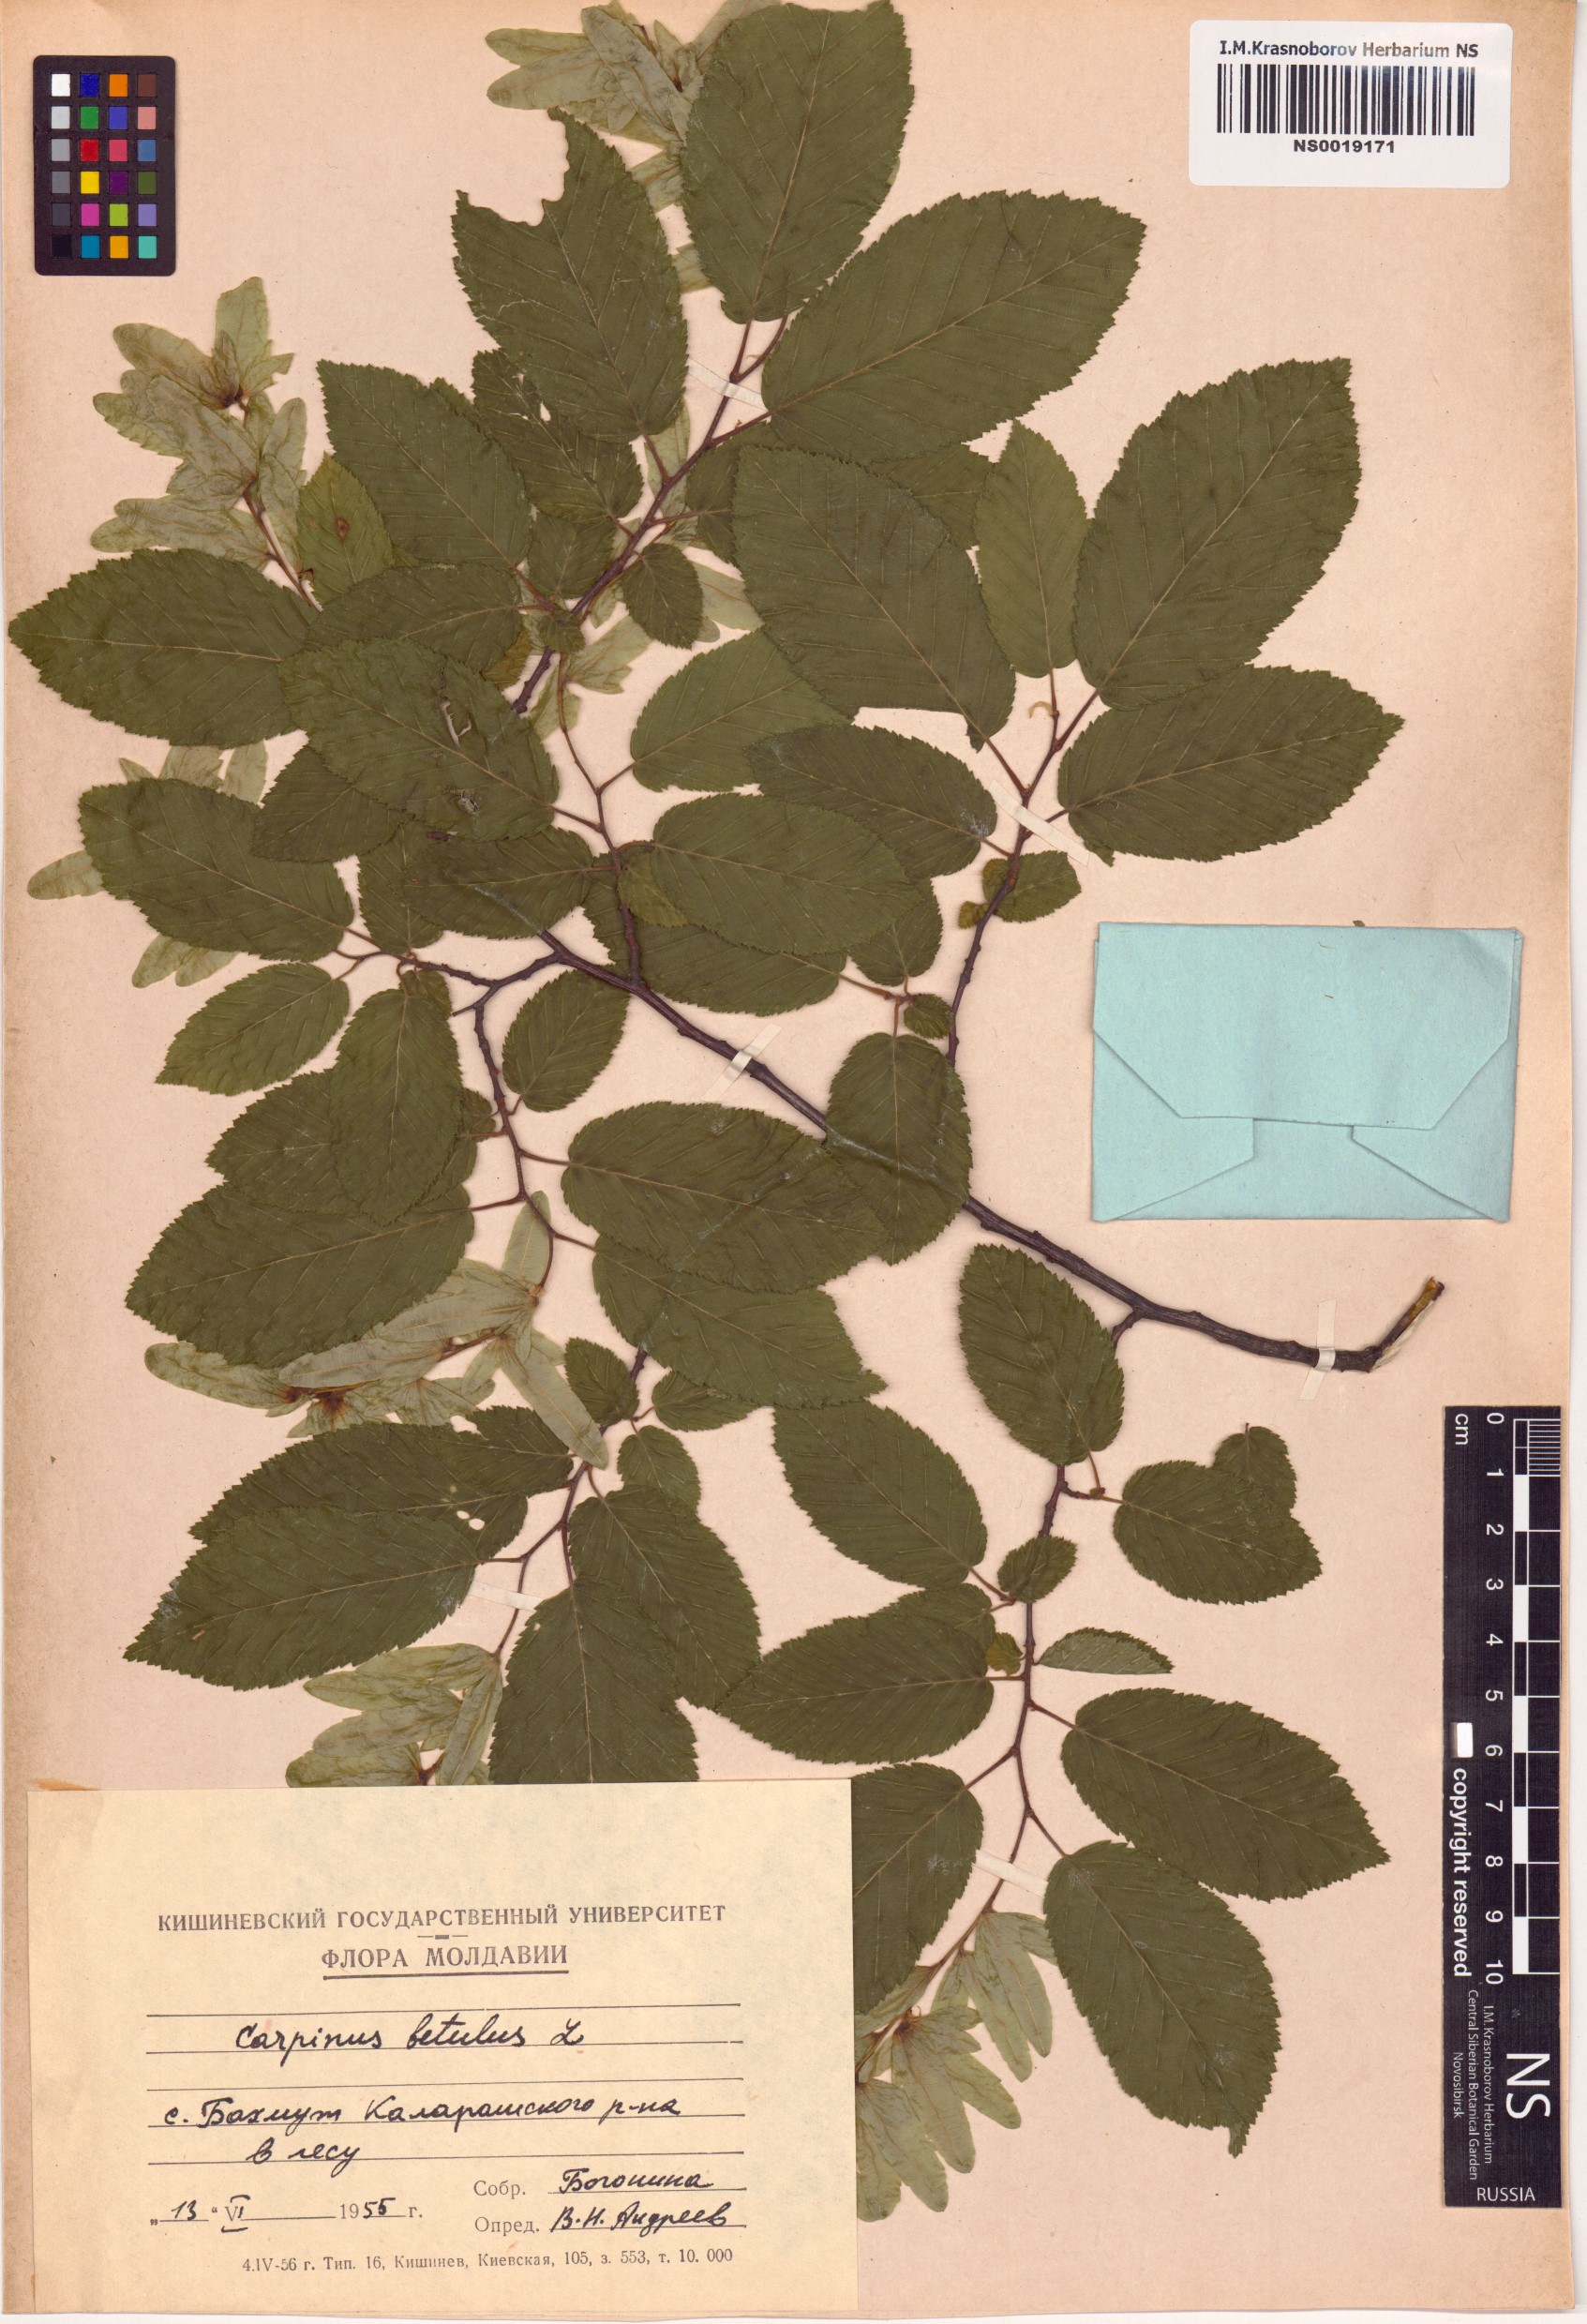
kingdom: Plantae
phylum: Tracheophyta
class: Magnoliopsida
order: Fagales
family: Betulaceae
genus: Carpinus
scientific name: Carpinus betulus
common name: Hornbeam
